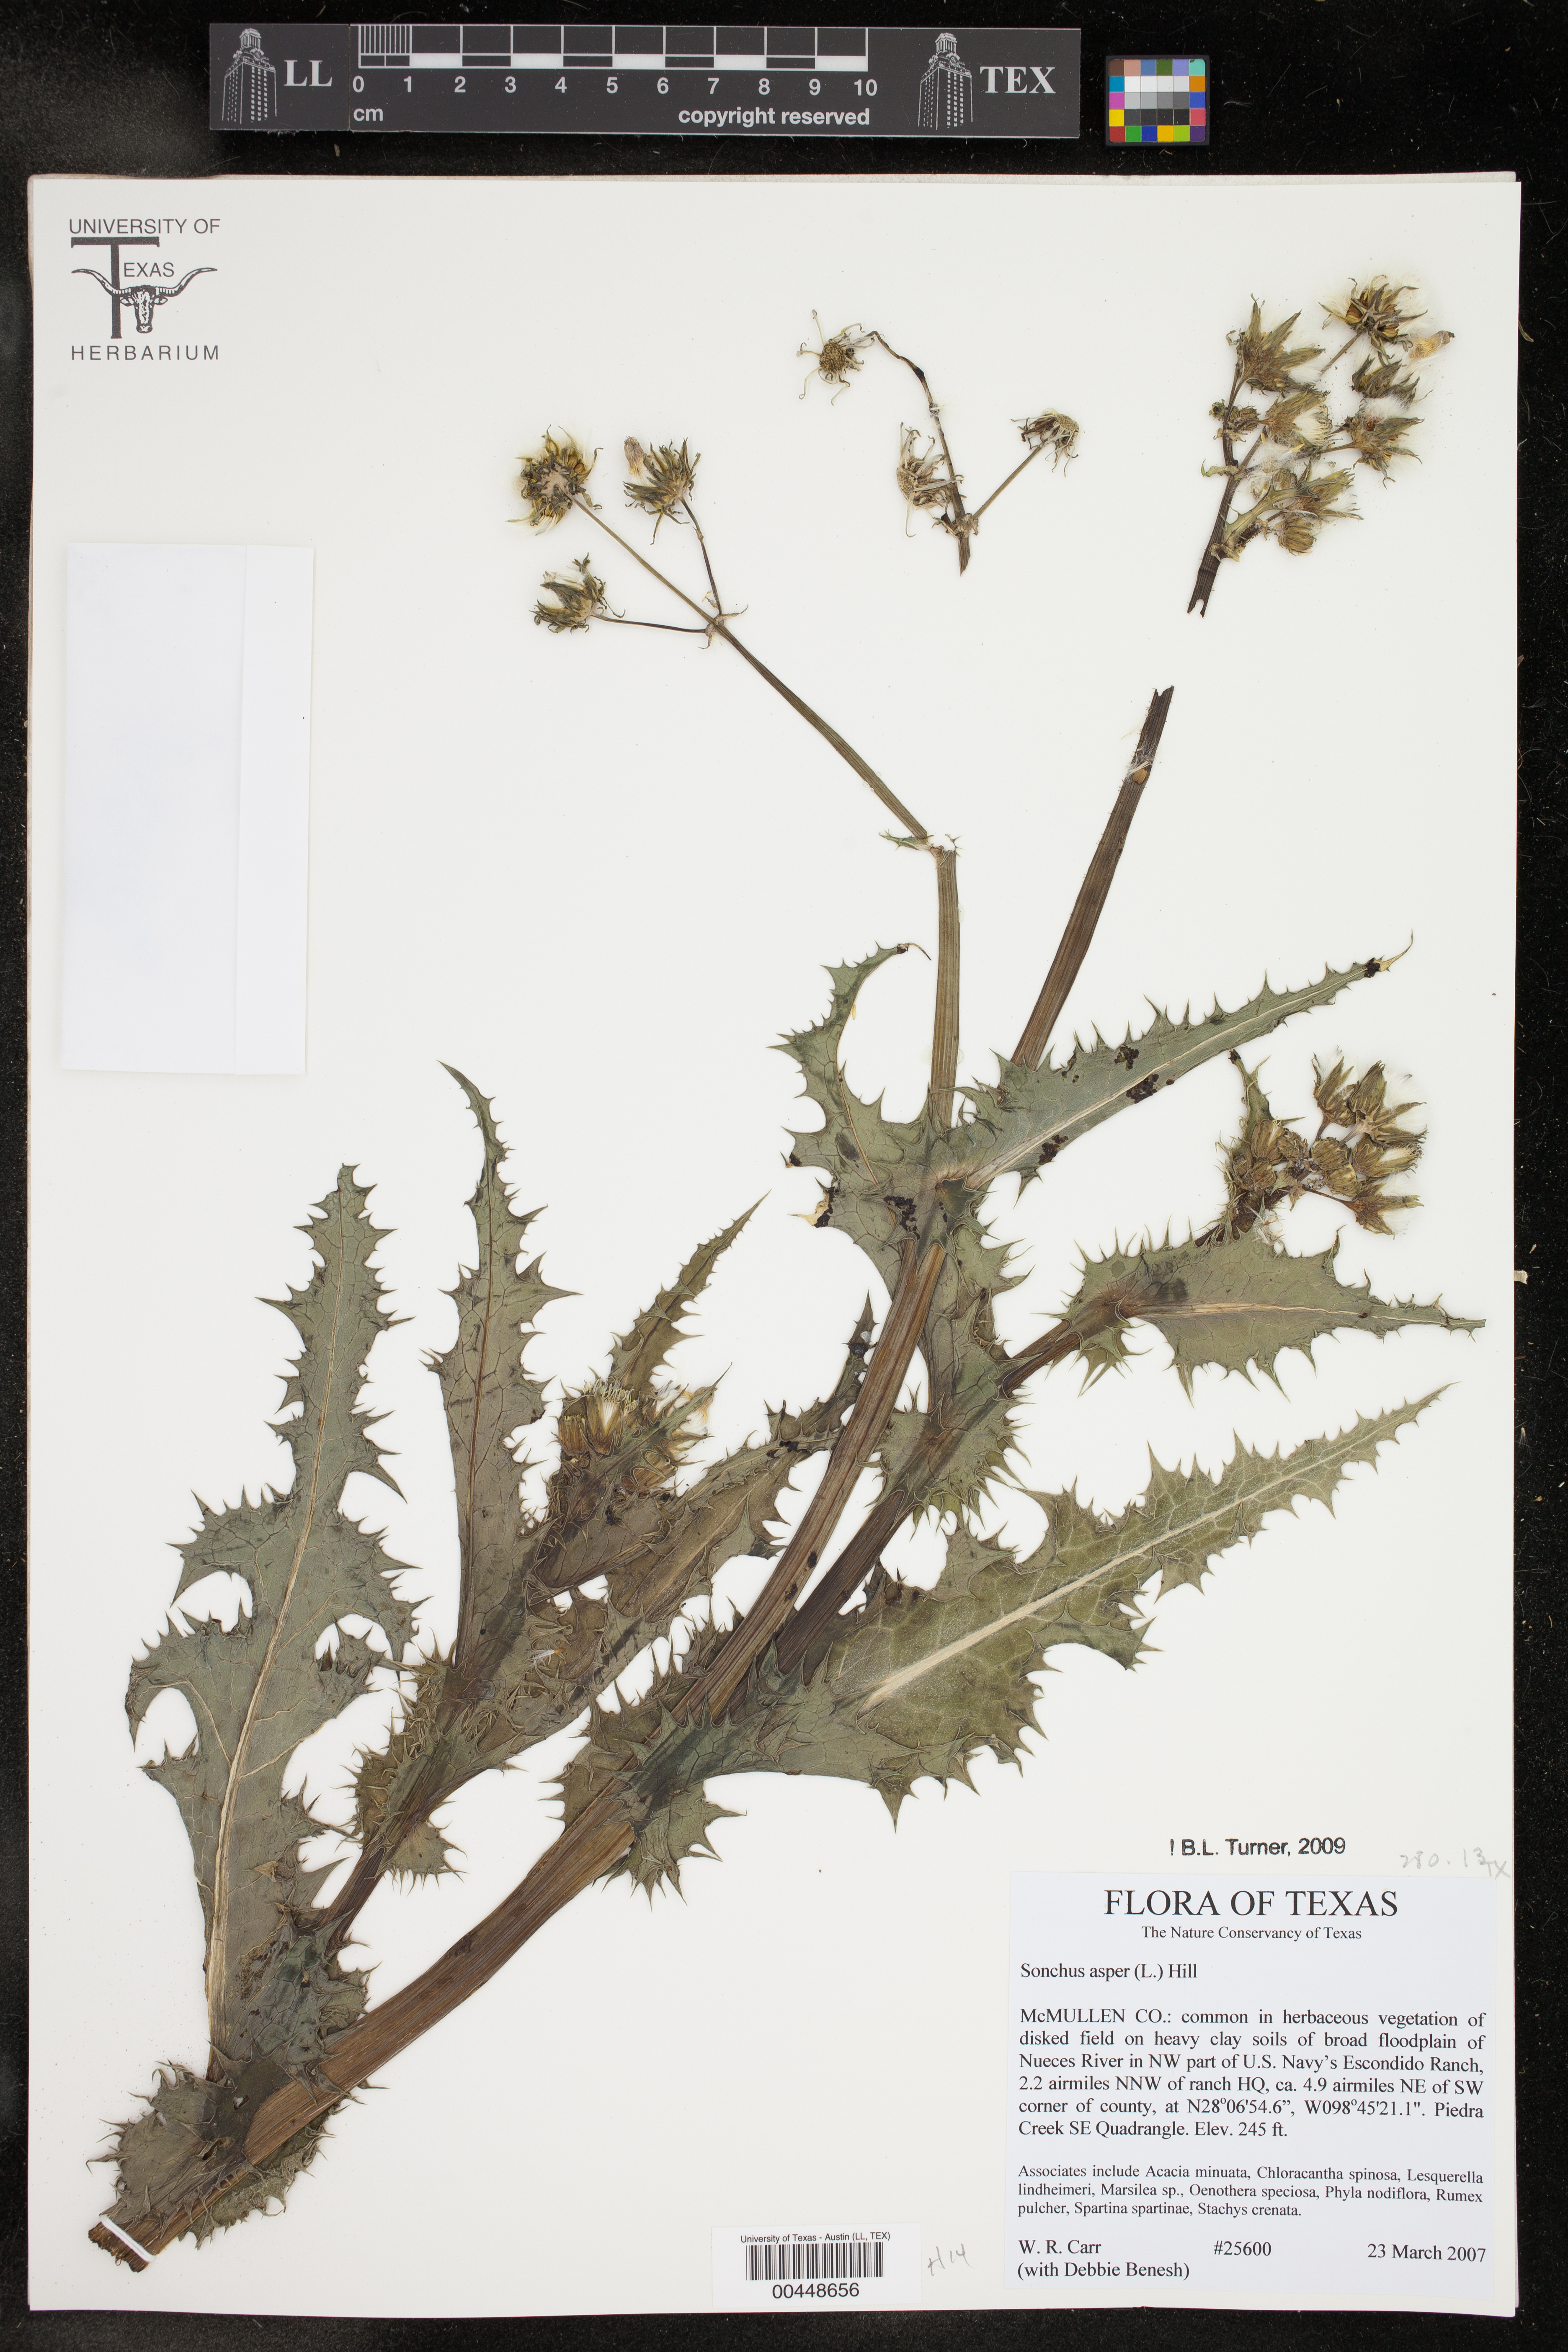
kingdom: Plantae
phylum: Tracheophyta
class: Magnoliopsida
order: Asterales
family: Asteraceae
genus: Sonchus
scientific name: Sonchus asper
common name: Prickly sow-thistle
